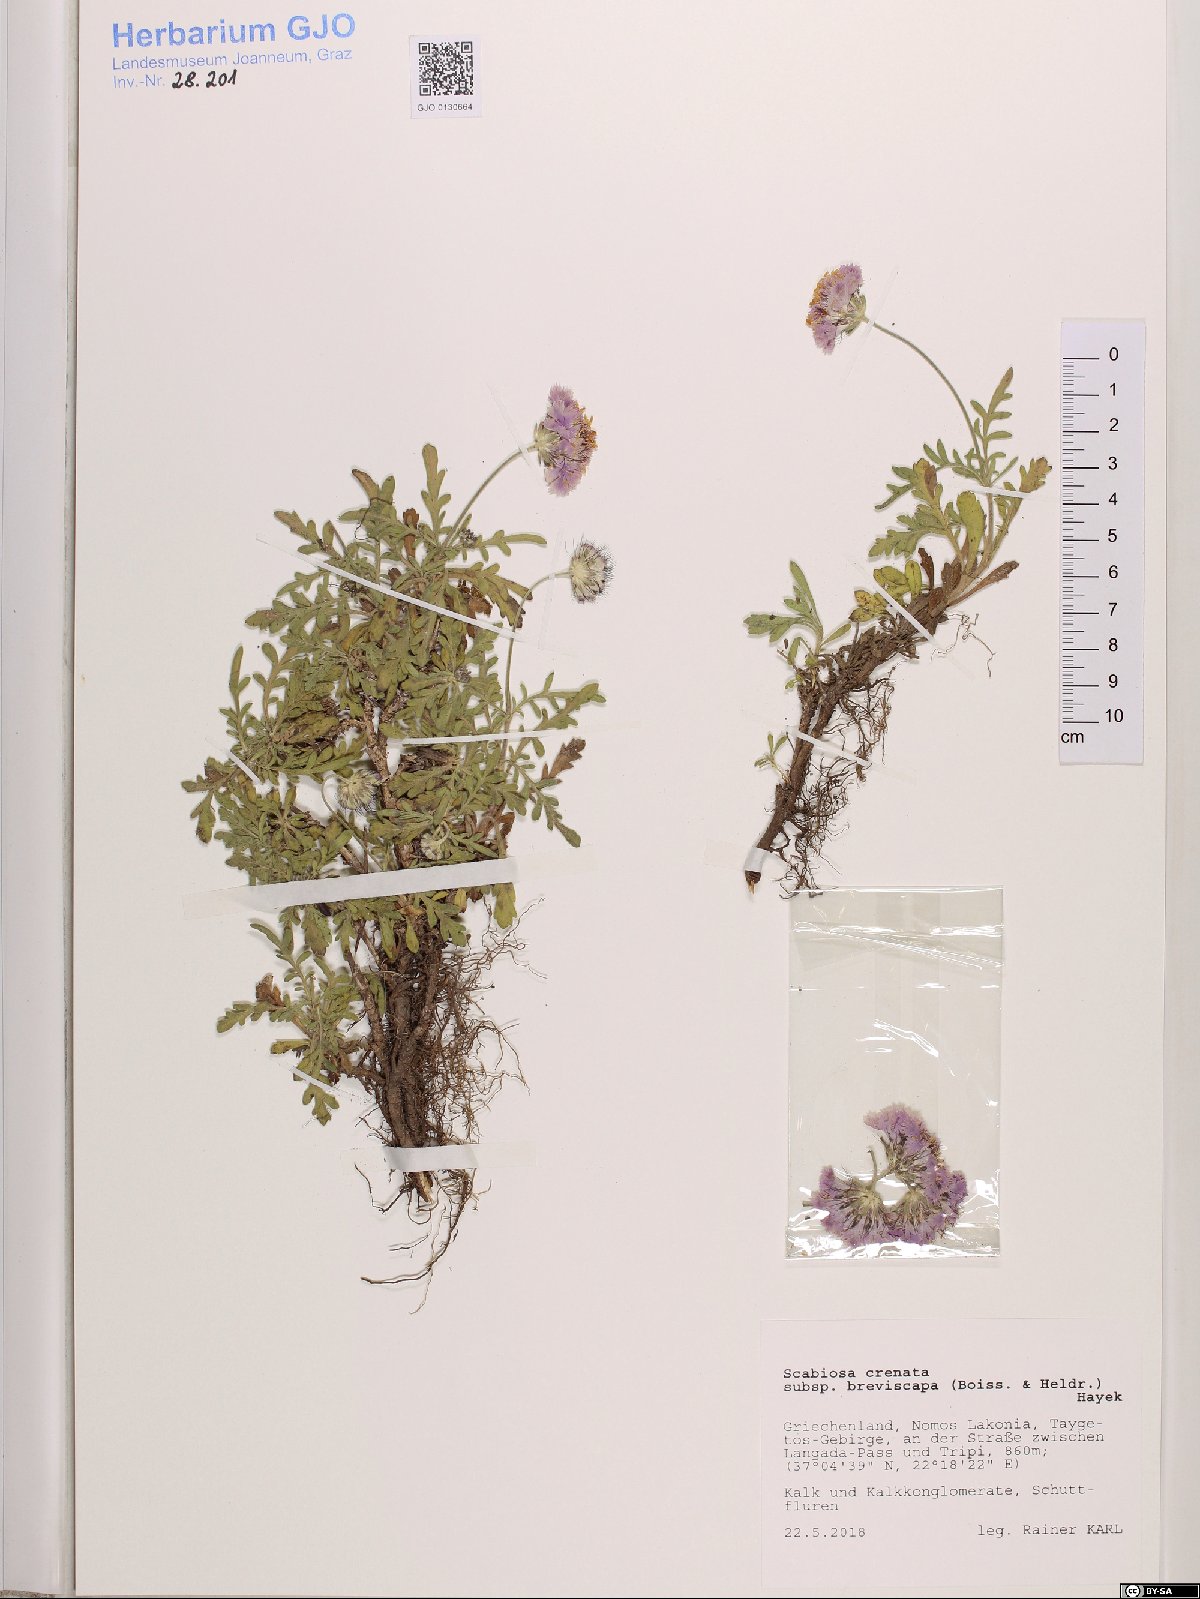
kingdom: Plantae
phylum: Tracheophyta
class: Magnoliopsida
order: Dipsacales
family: Caprifoliaceae
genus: Lomelosia
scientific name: Lomelosia crenata
